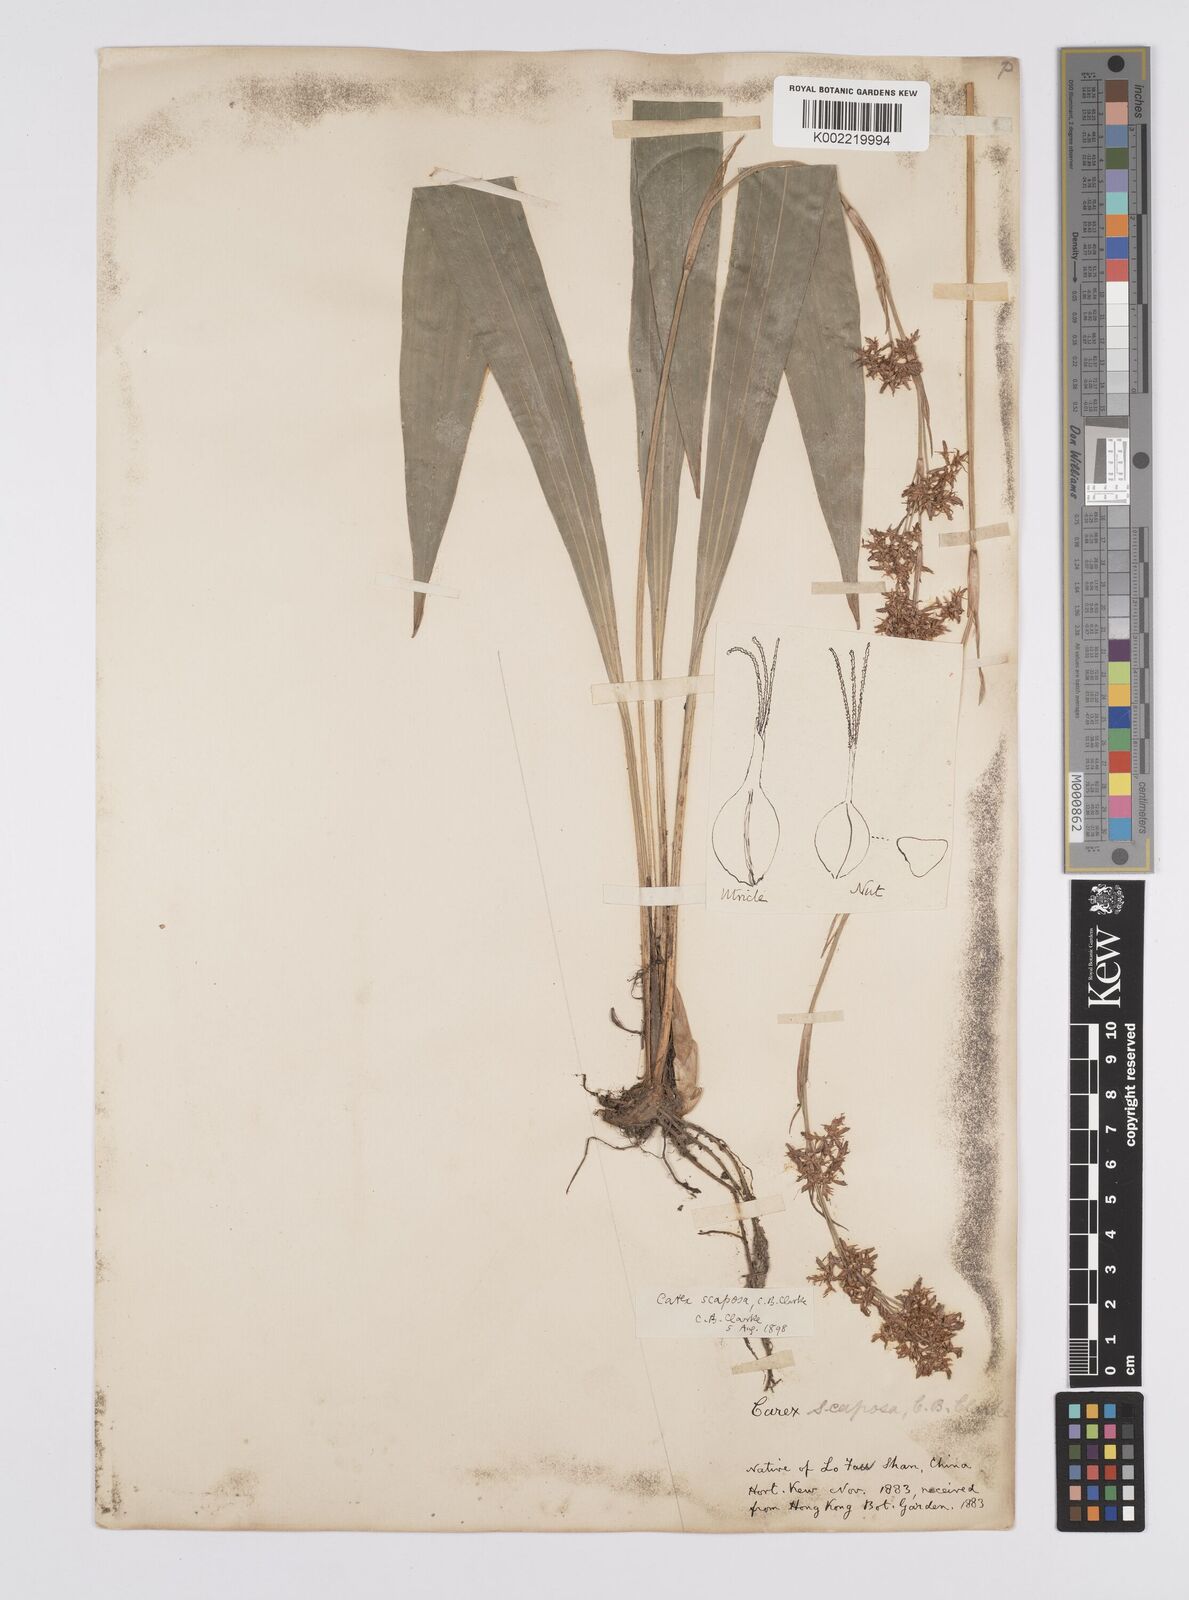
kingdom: Plantae
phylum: Tracheophyta
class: Liliopsida
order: Poales
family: Cyperaceae
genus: Carex
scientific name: Carex scaposa
